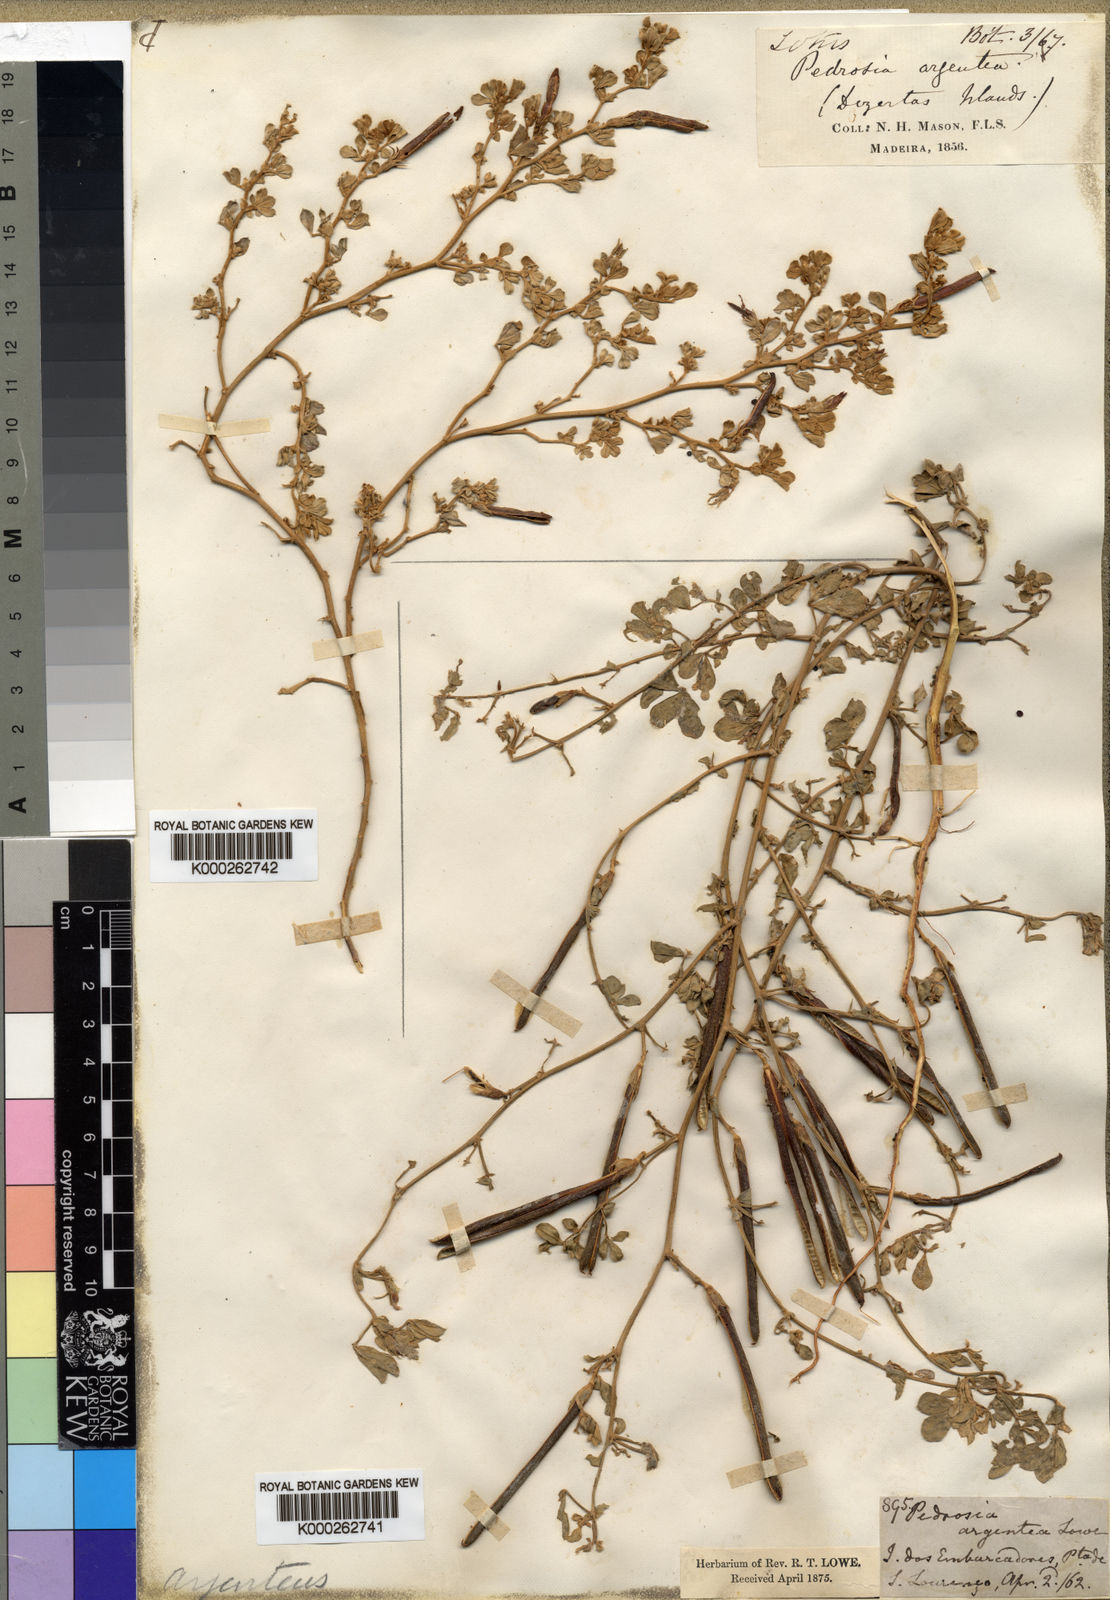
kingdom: Plantae
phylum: Tracheophyta
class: Magnoliopsida
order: Fabales
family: Fabaceae
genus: Lotus
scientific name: Lotus
